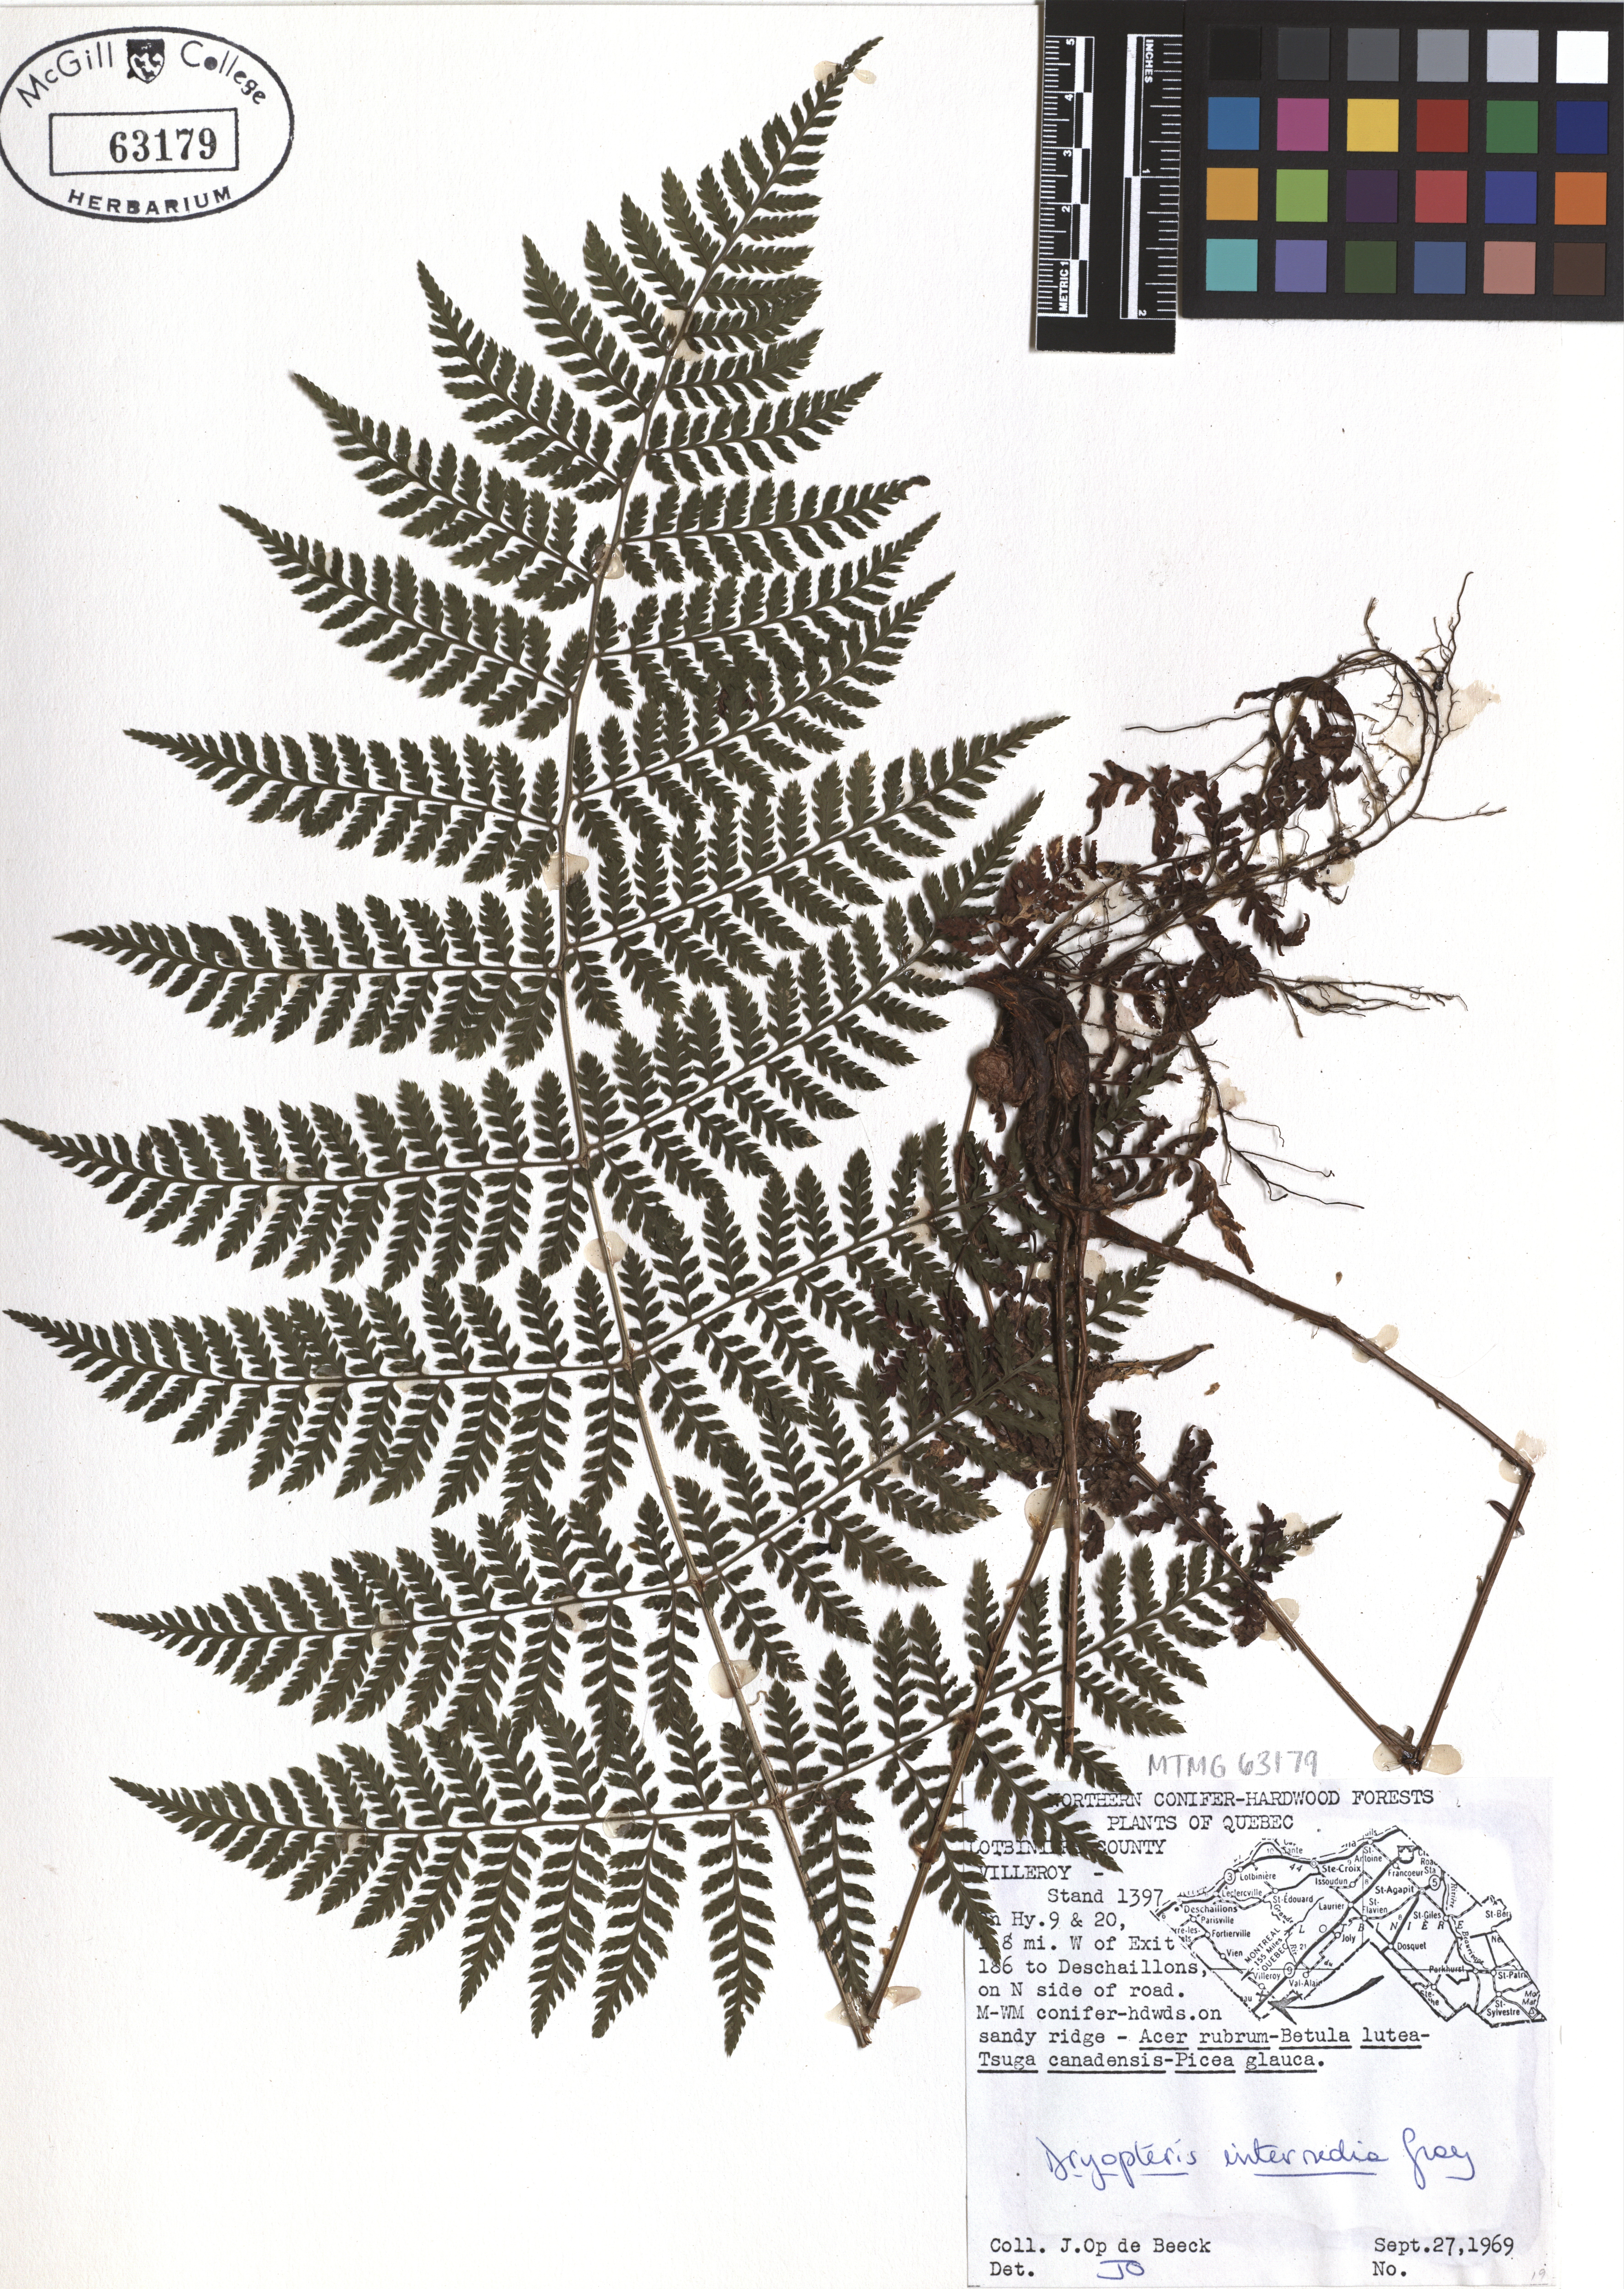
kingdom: Plantae
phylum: Tracheophyta
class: Polypodiopsida
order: Polypodiales
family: Dryopteridaceae
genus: Dryopteris
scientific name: Dryopteris intermedia
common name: Evergreen wood fern
